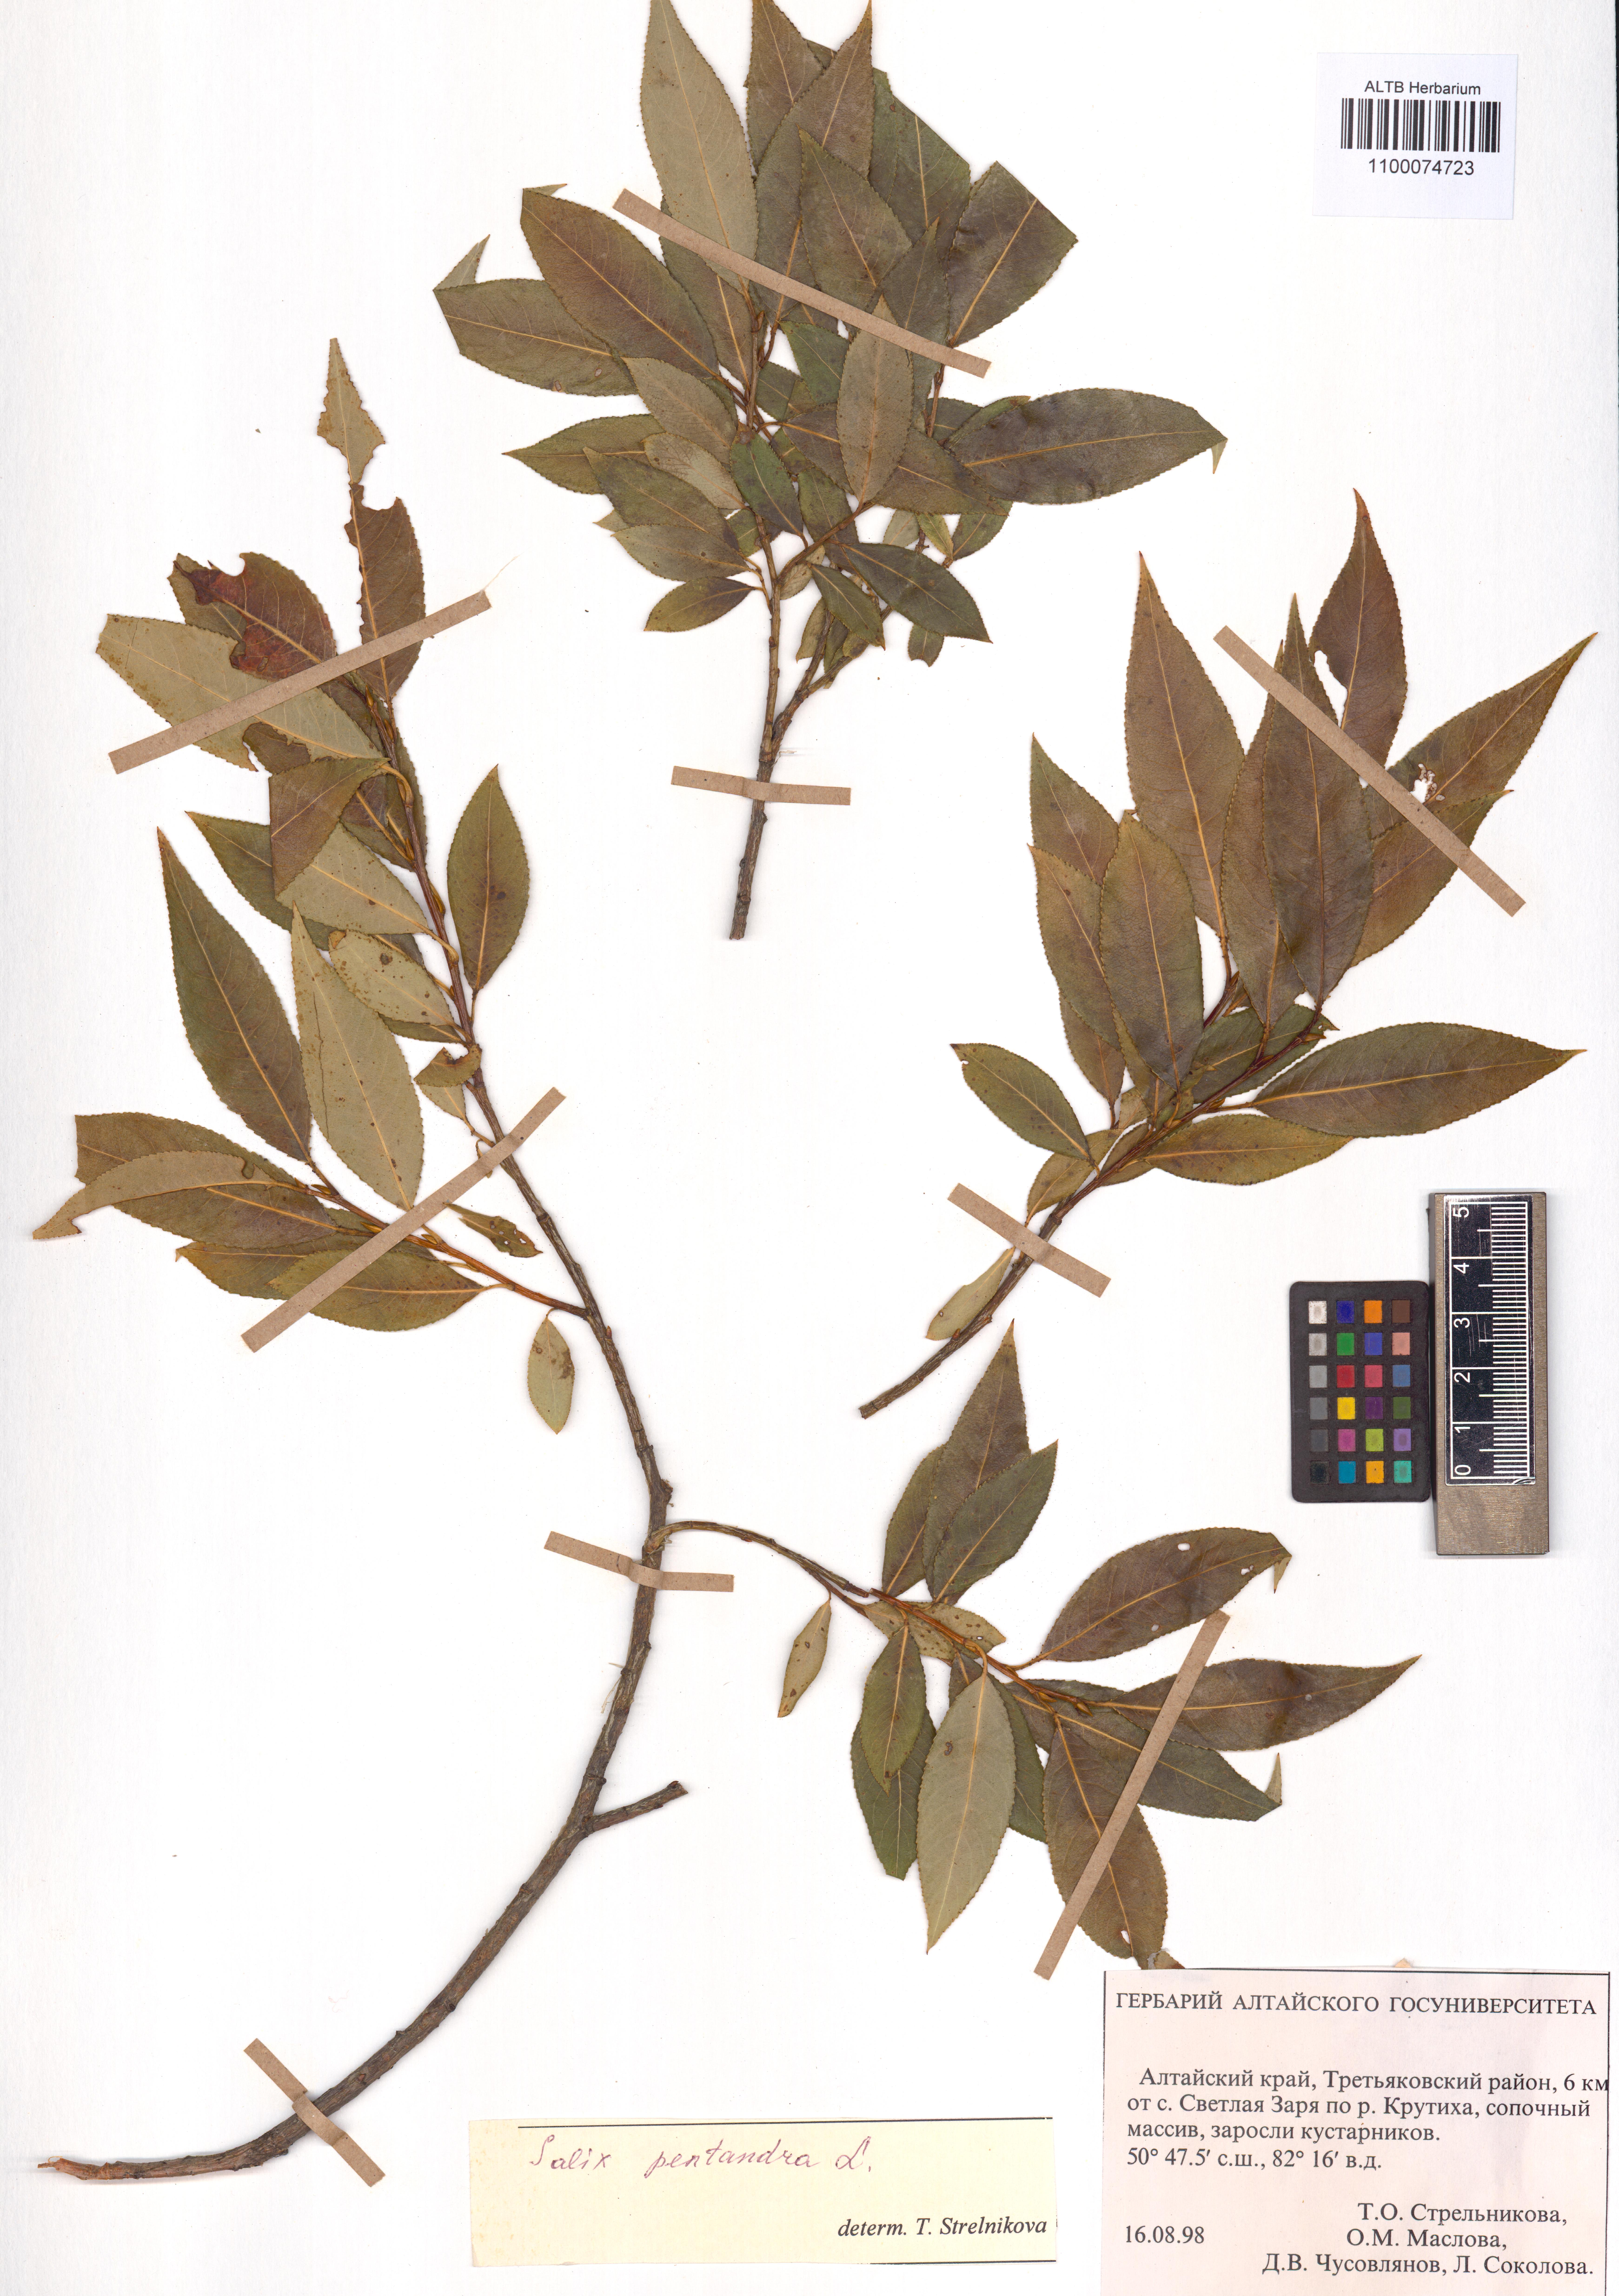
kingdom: Plantae
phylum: Tracheophyta
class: Magnoliopsida
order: Malpighiales
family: Salicaceae
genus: Salix
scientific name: Salix pentandra
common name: Bay willow
